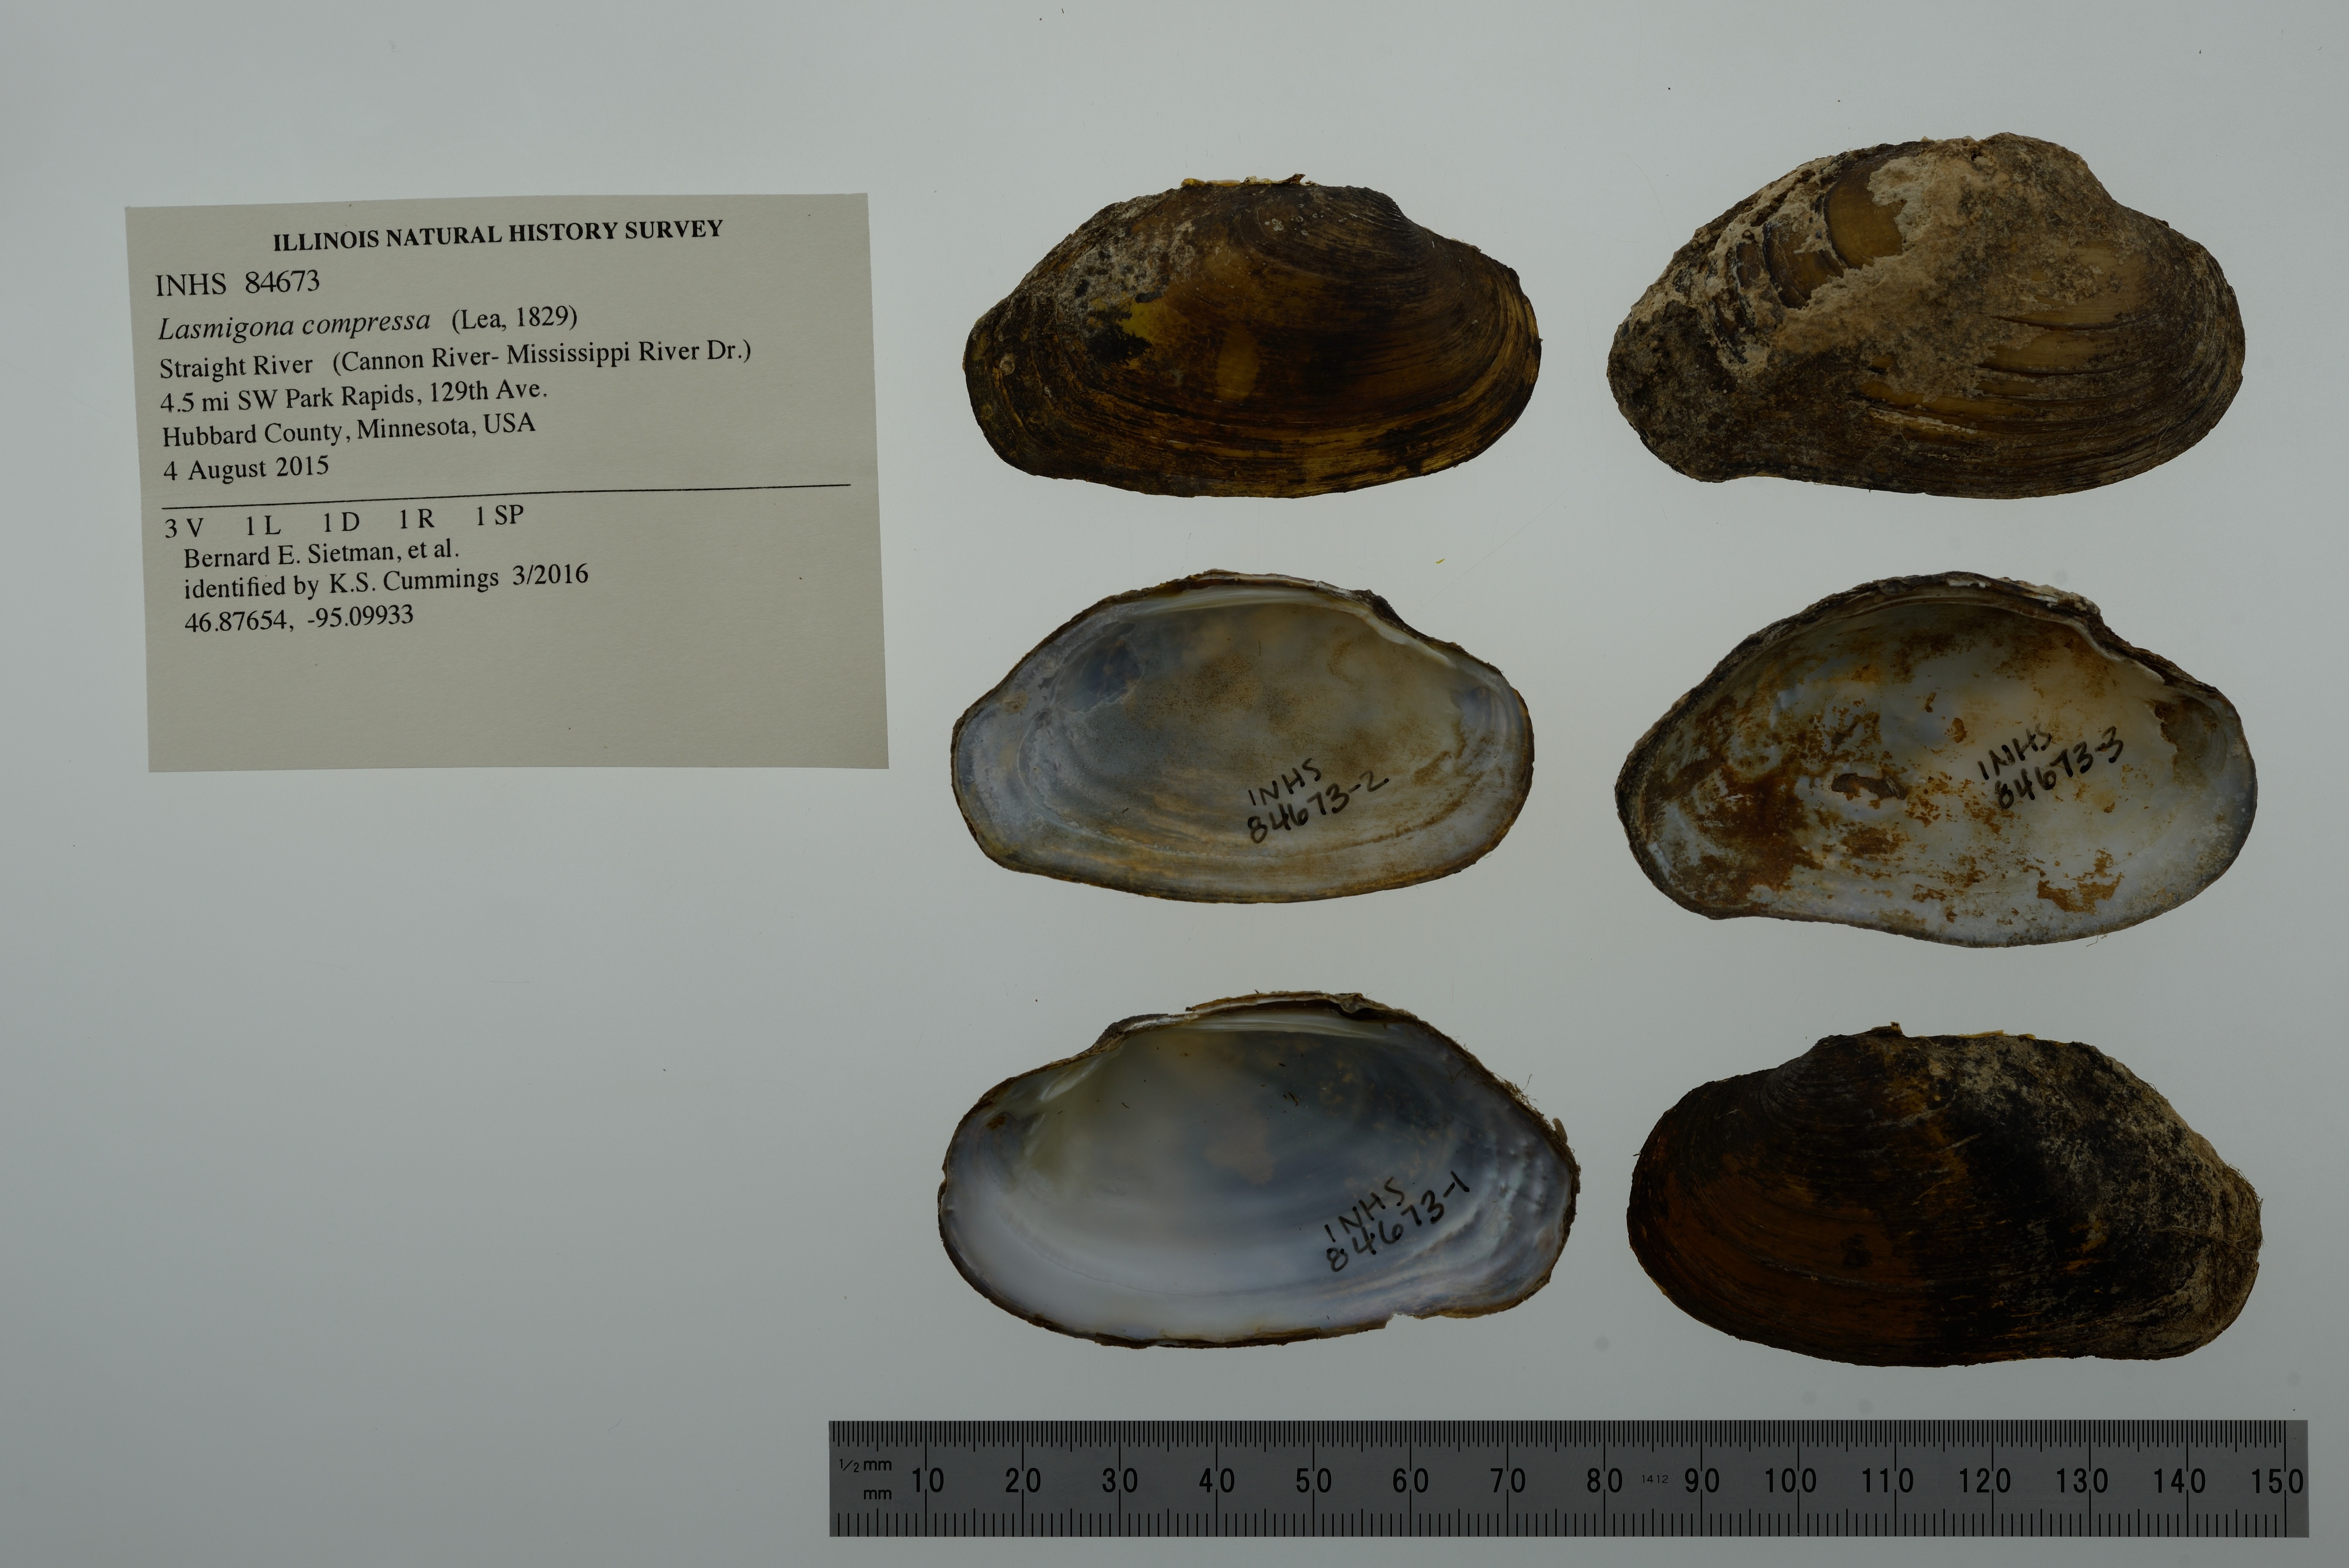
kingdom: Animalia
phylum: Mollusca
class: Bivalvia
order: Unionida
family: Unionidae
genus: Lasmigona
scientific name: Lasmigona compressa
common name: Creek heelsplitter
